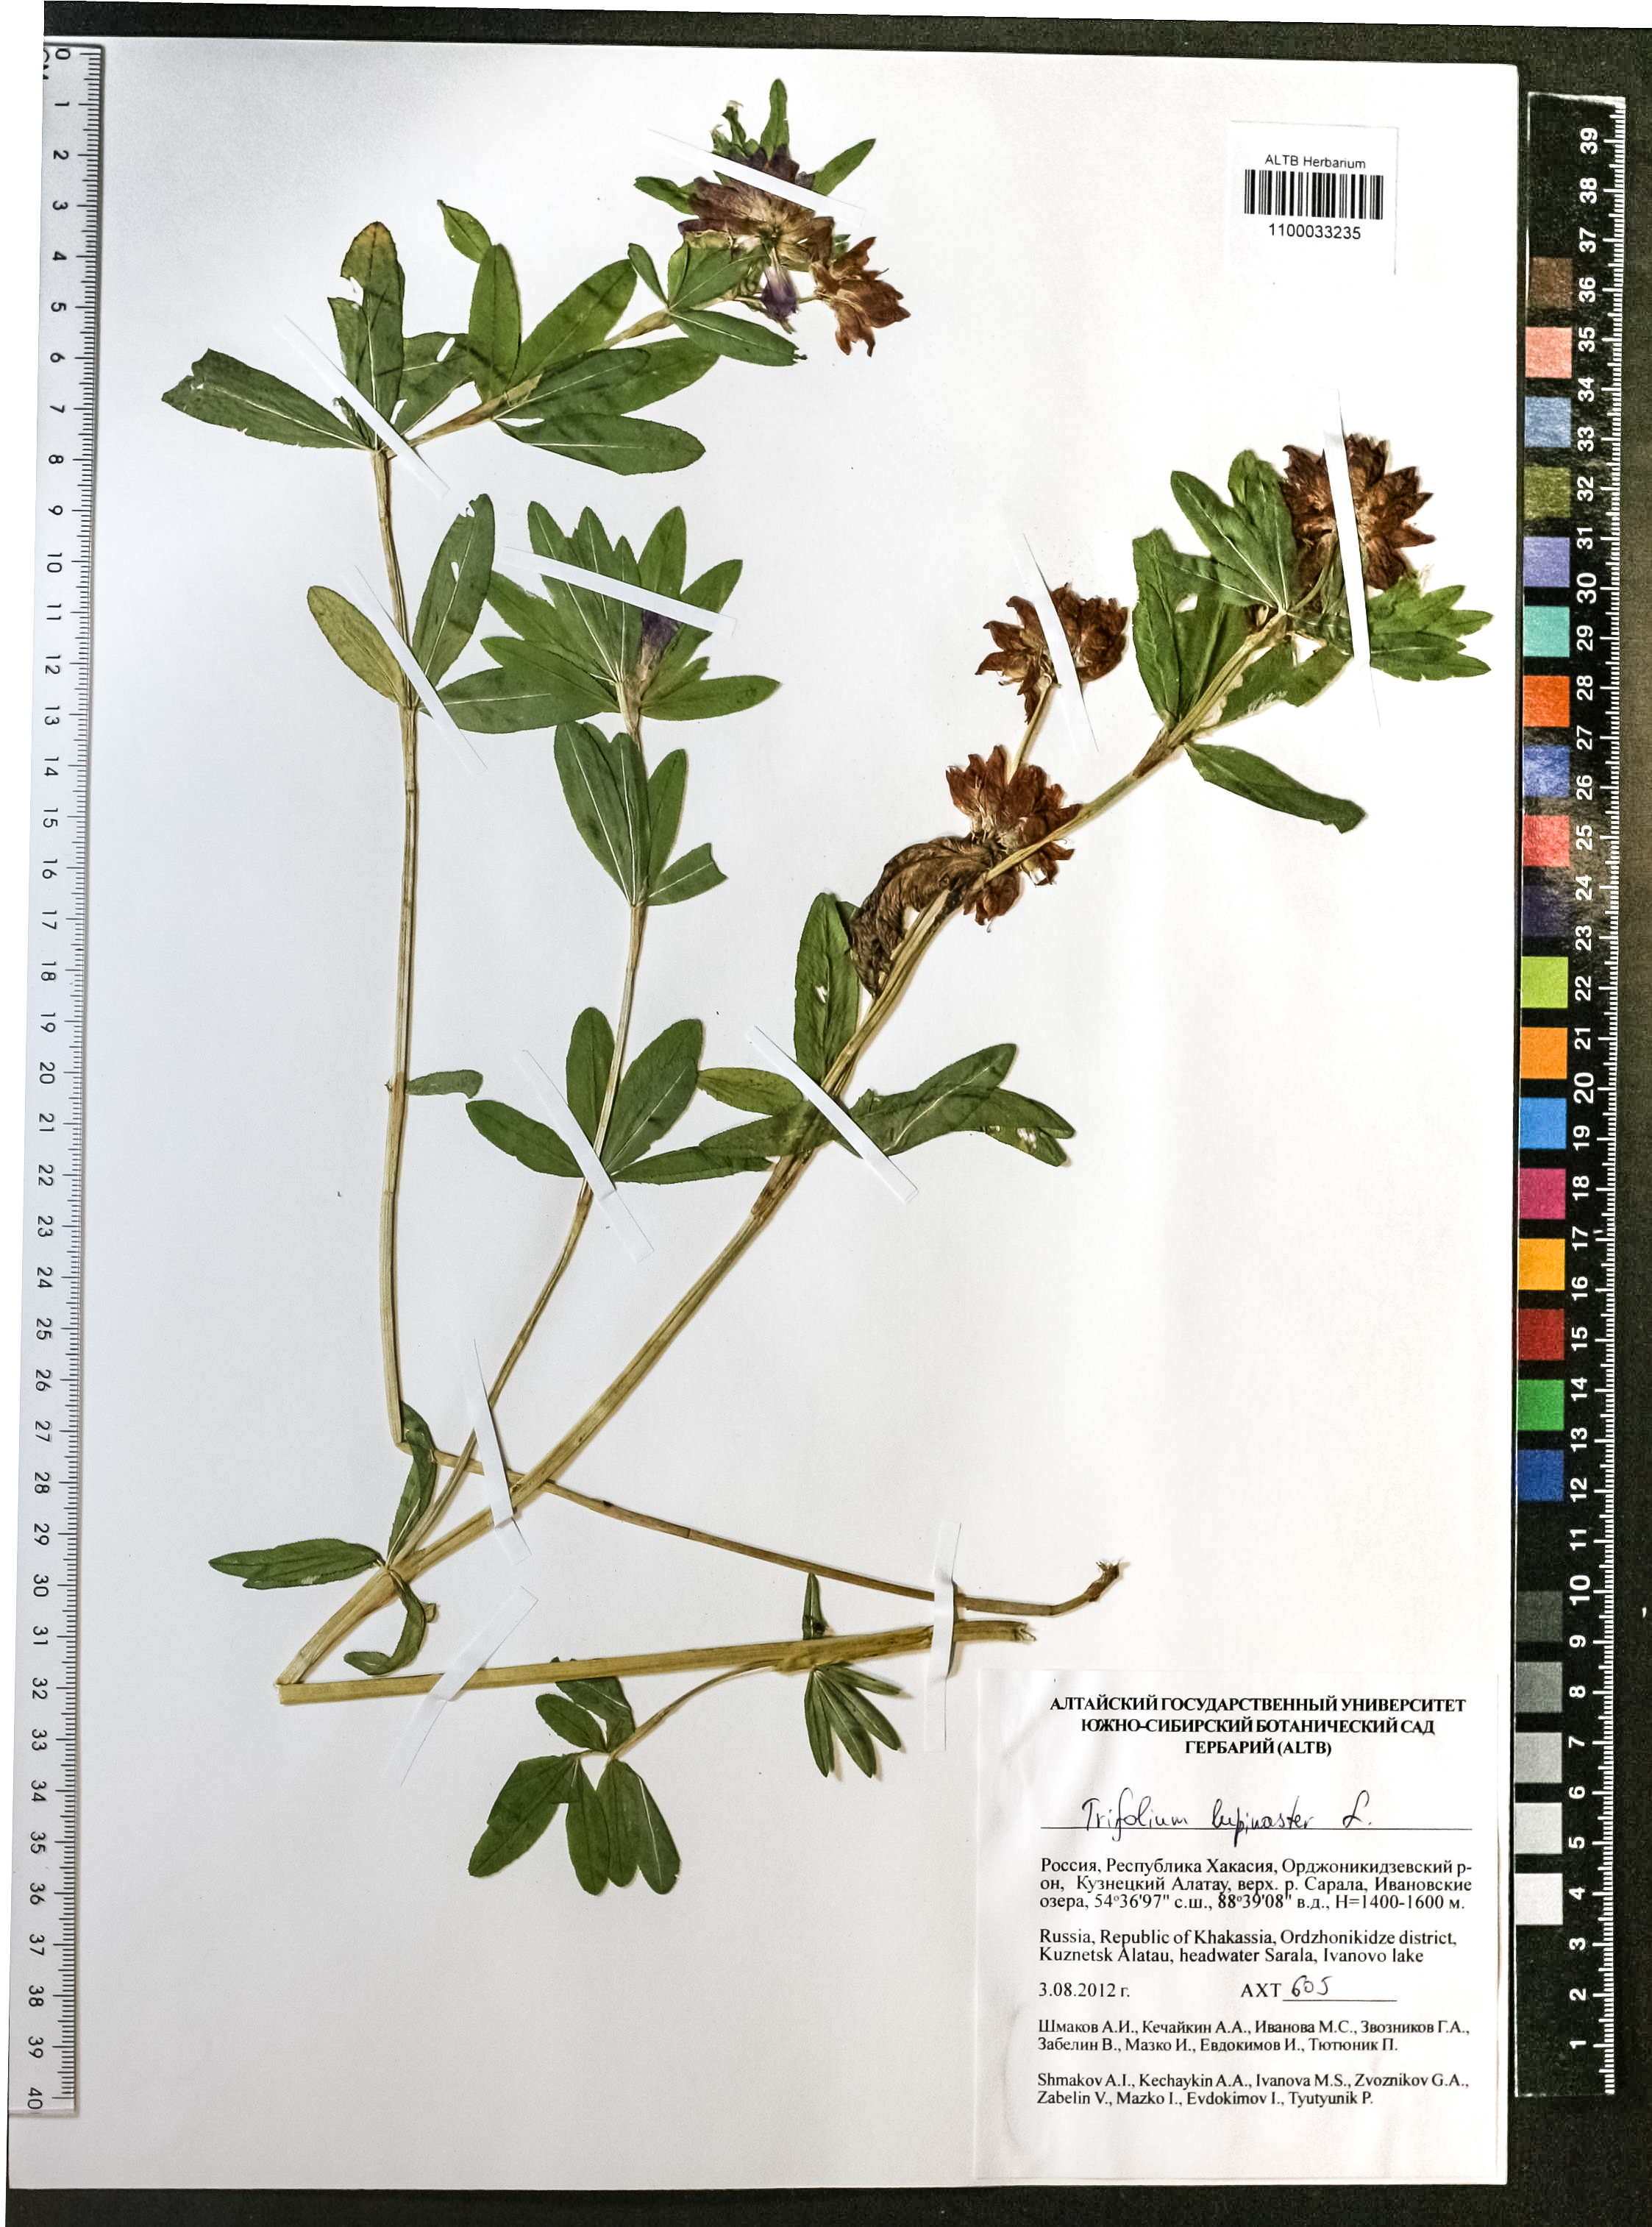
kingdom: Plantae
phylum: Tracheophyta
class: Magnoliopsida
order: Fabales
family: Fabaceae
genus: Trifolium
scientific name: Trifolium lupinaster
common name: Lupine clover
